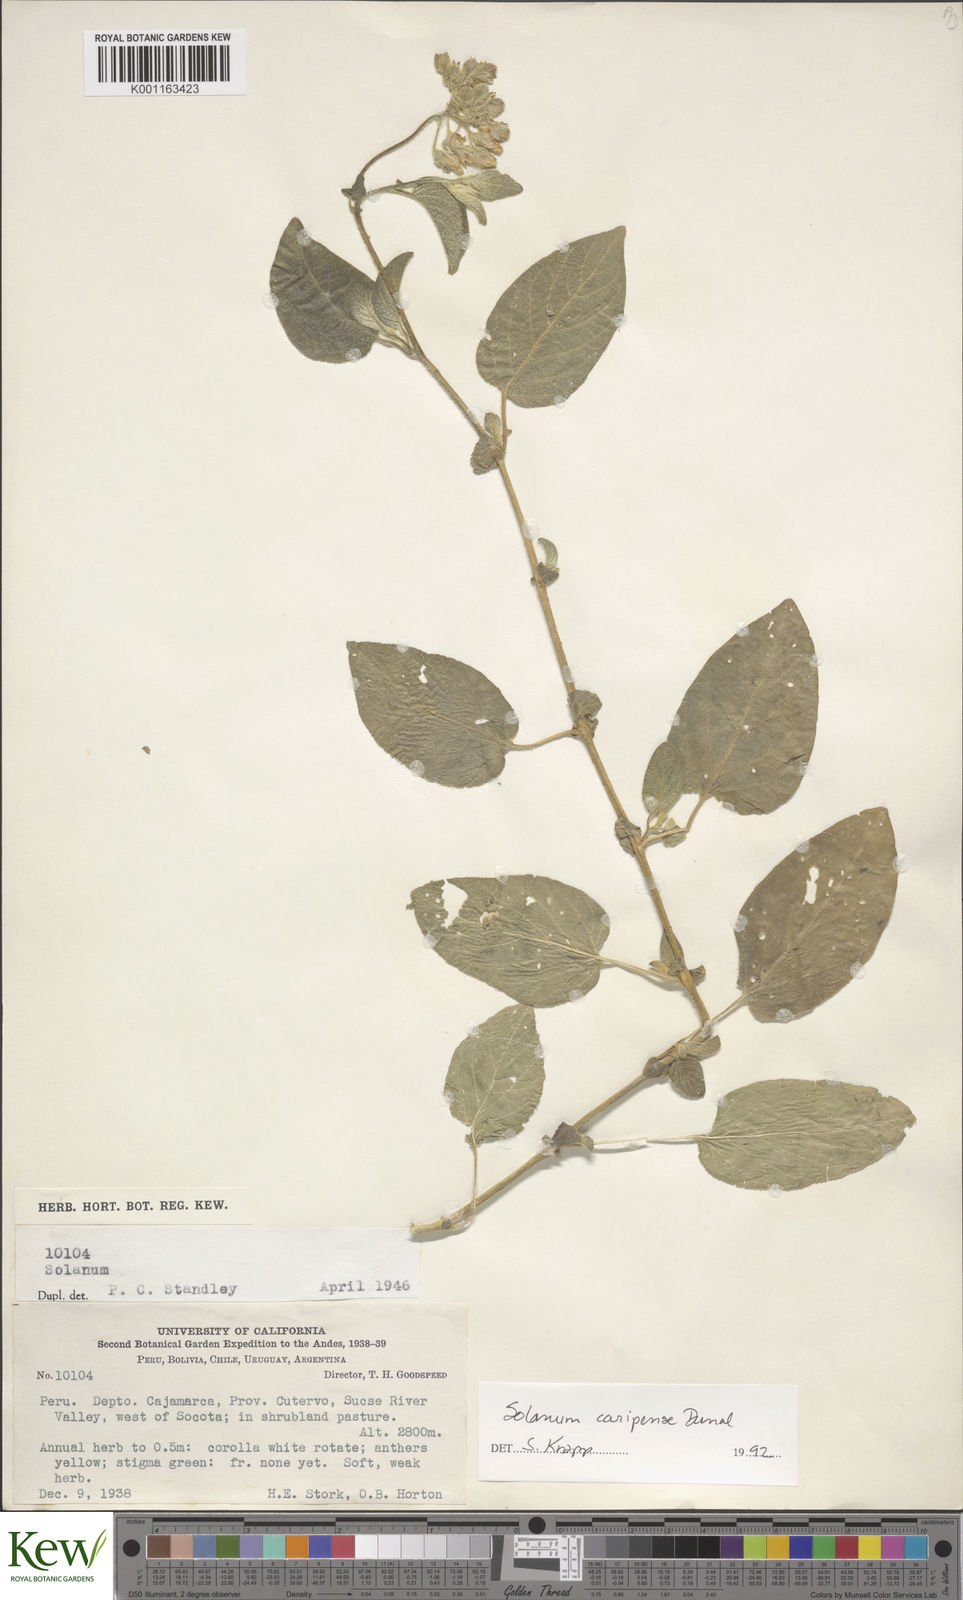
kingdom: Plantae
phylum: Tracheophyta
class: Magnoliopsida
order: Solanales
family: Solanaceae
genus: Solanum
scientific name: Solanum caripense
